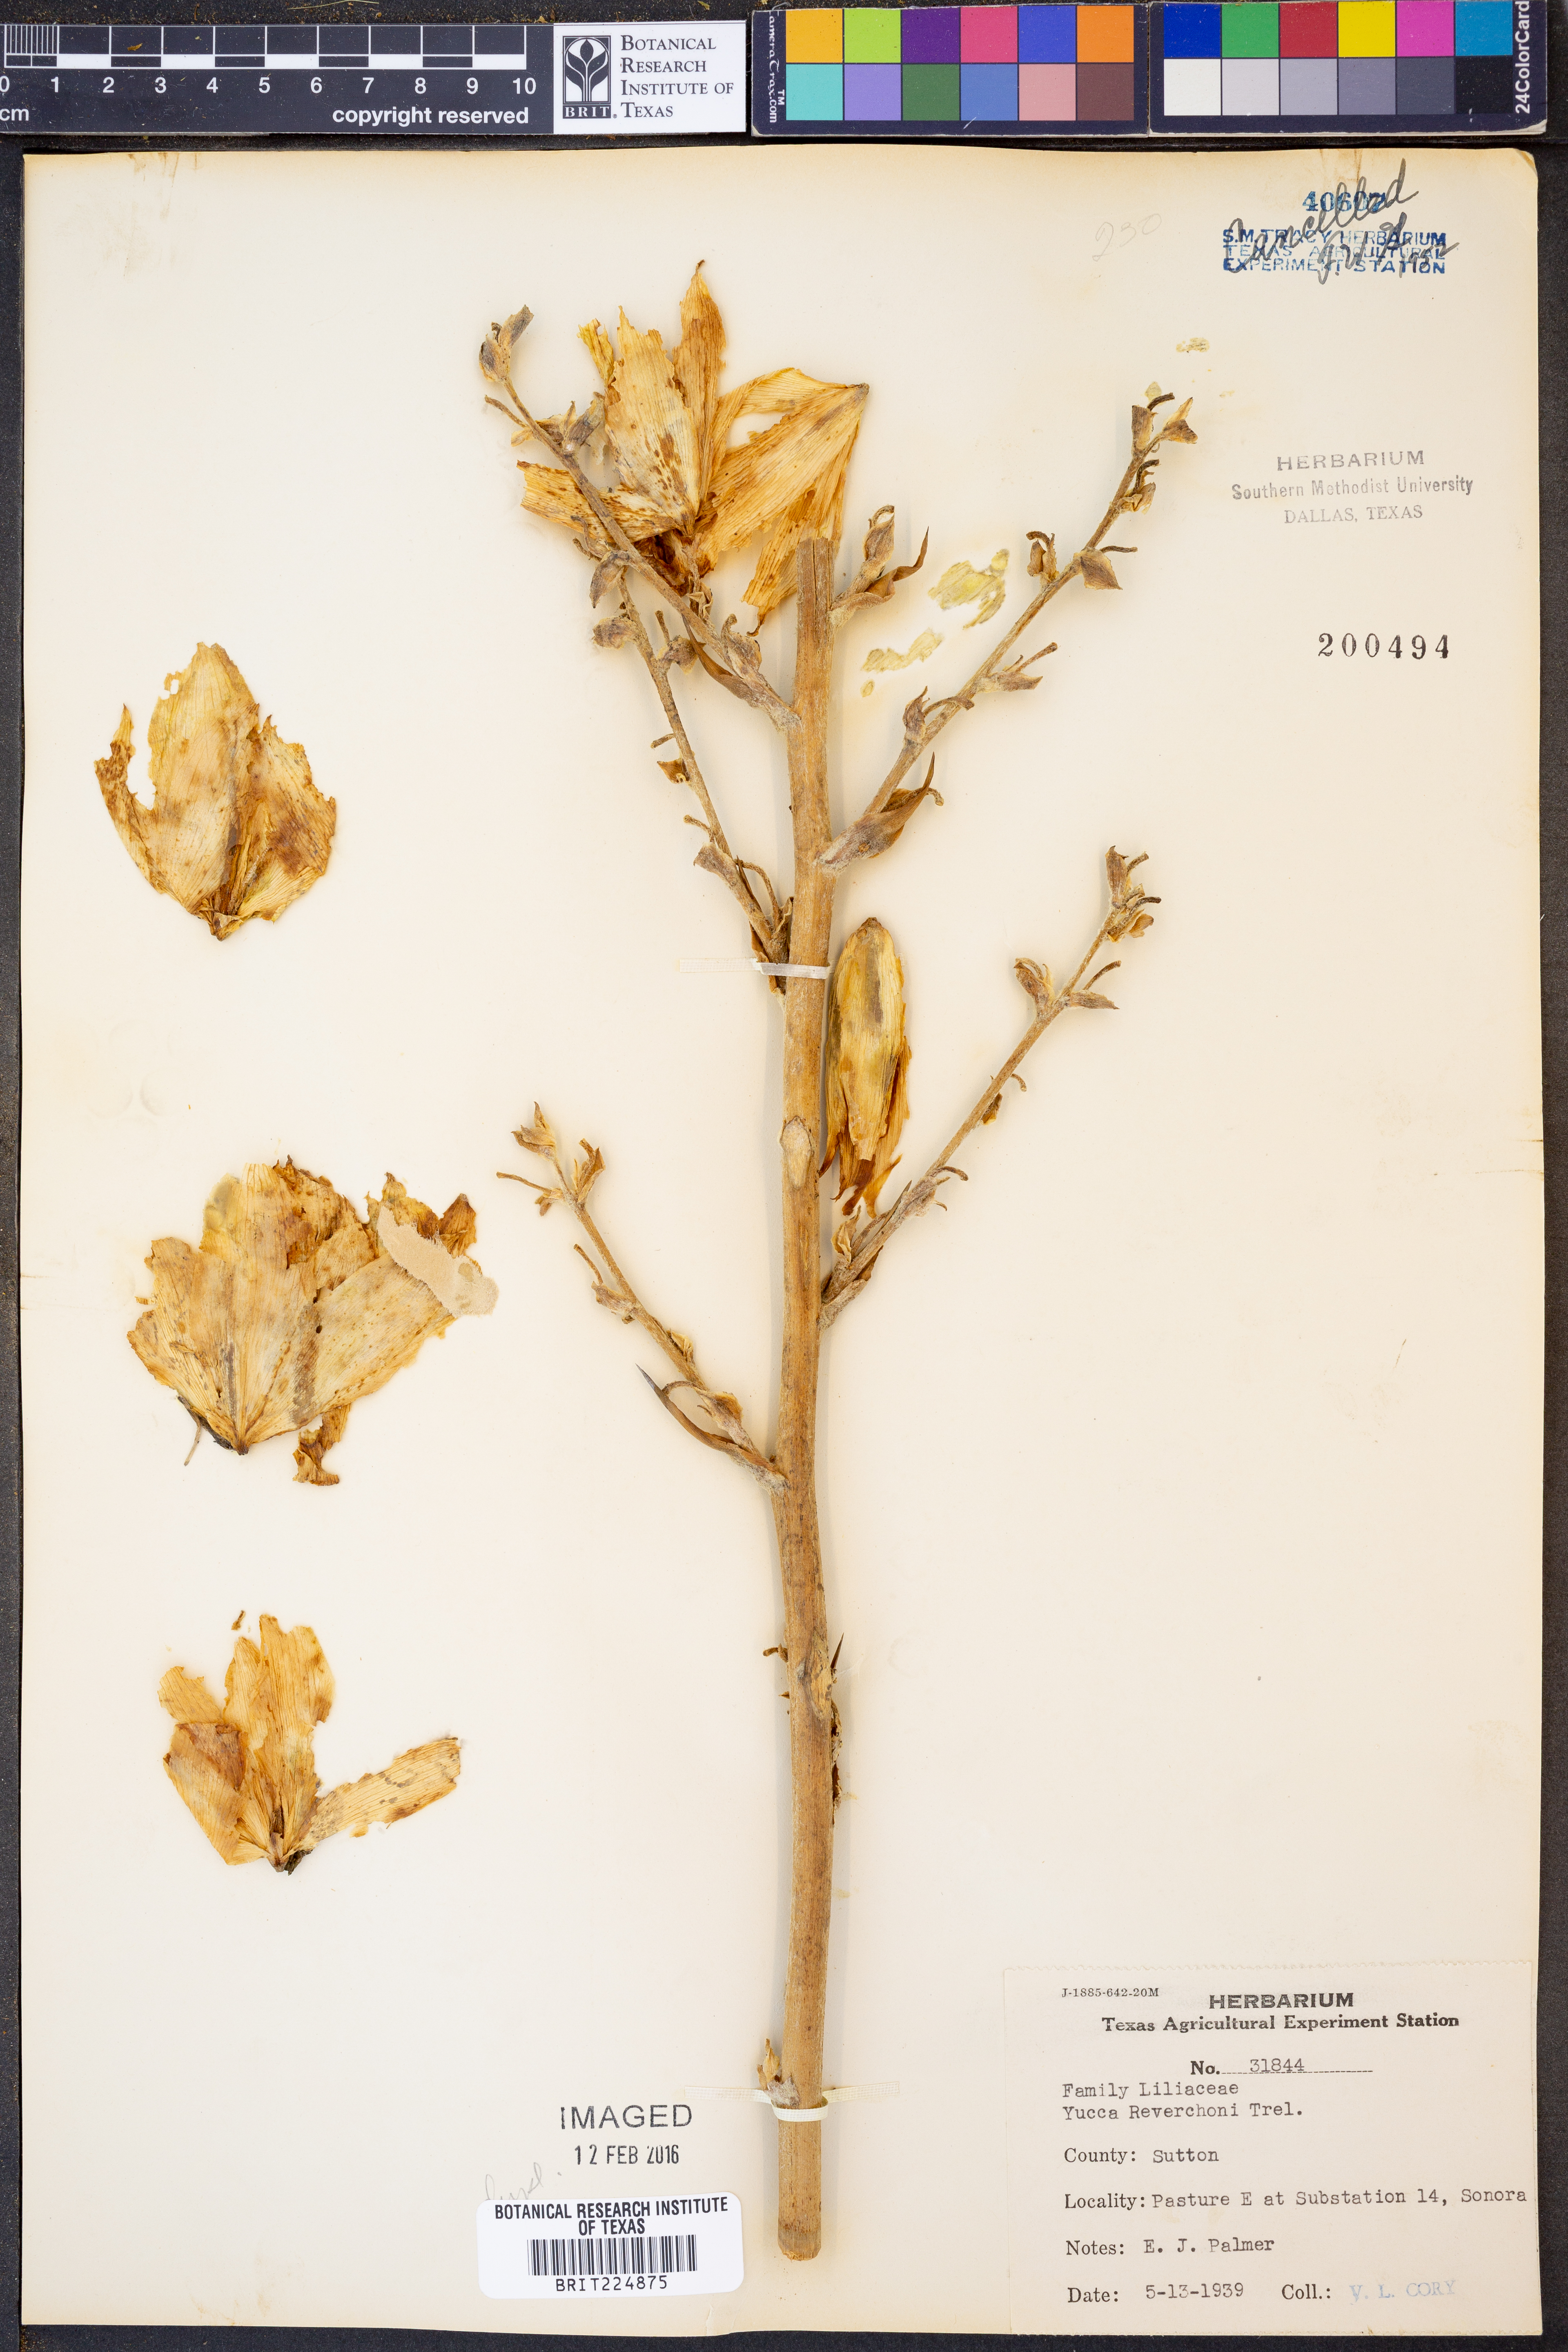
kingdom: Plantae
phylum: Tracheophyta
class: Liliopsida
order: Asparagales
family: Asparagaceae
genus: Yucca
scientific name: Yucca reverchonii
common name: San angelo yucca
